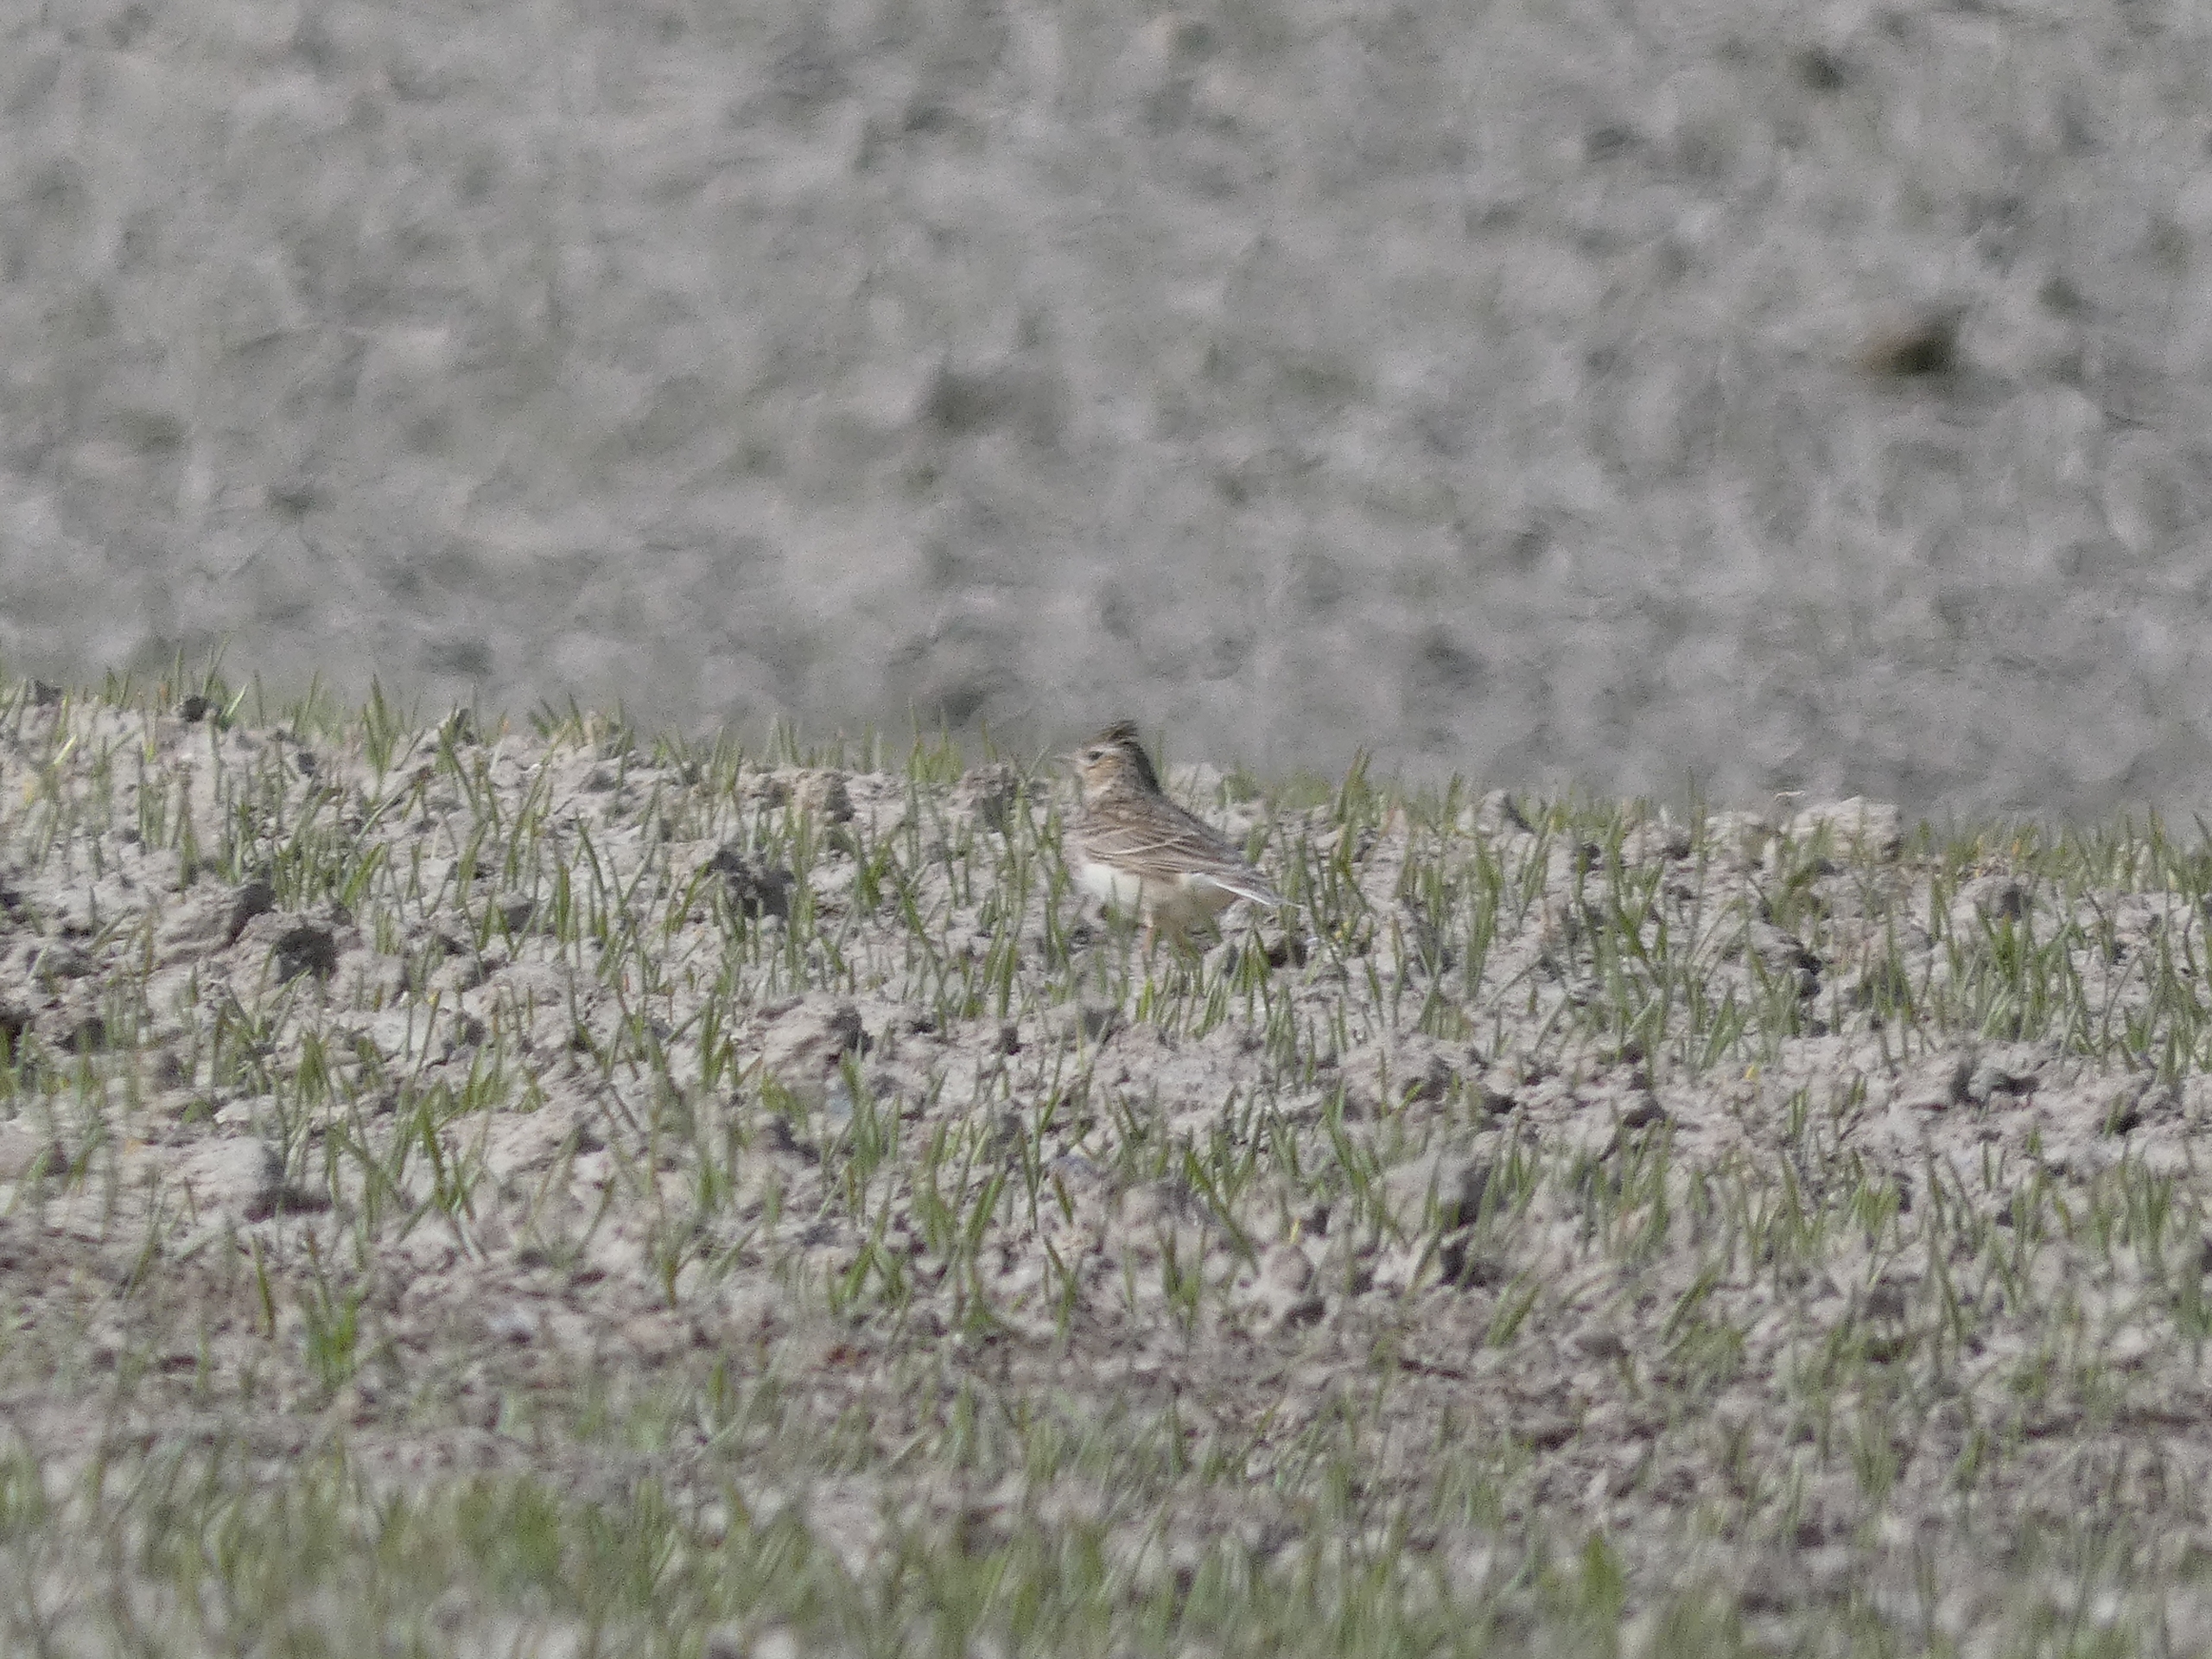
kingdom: Animalia
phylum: Chordata
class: Aves
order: Passeriformes
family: Alaudidae
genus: Alauda
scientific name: Alauda arvensis
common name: Sanglærke
